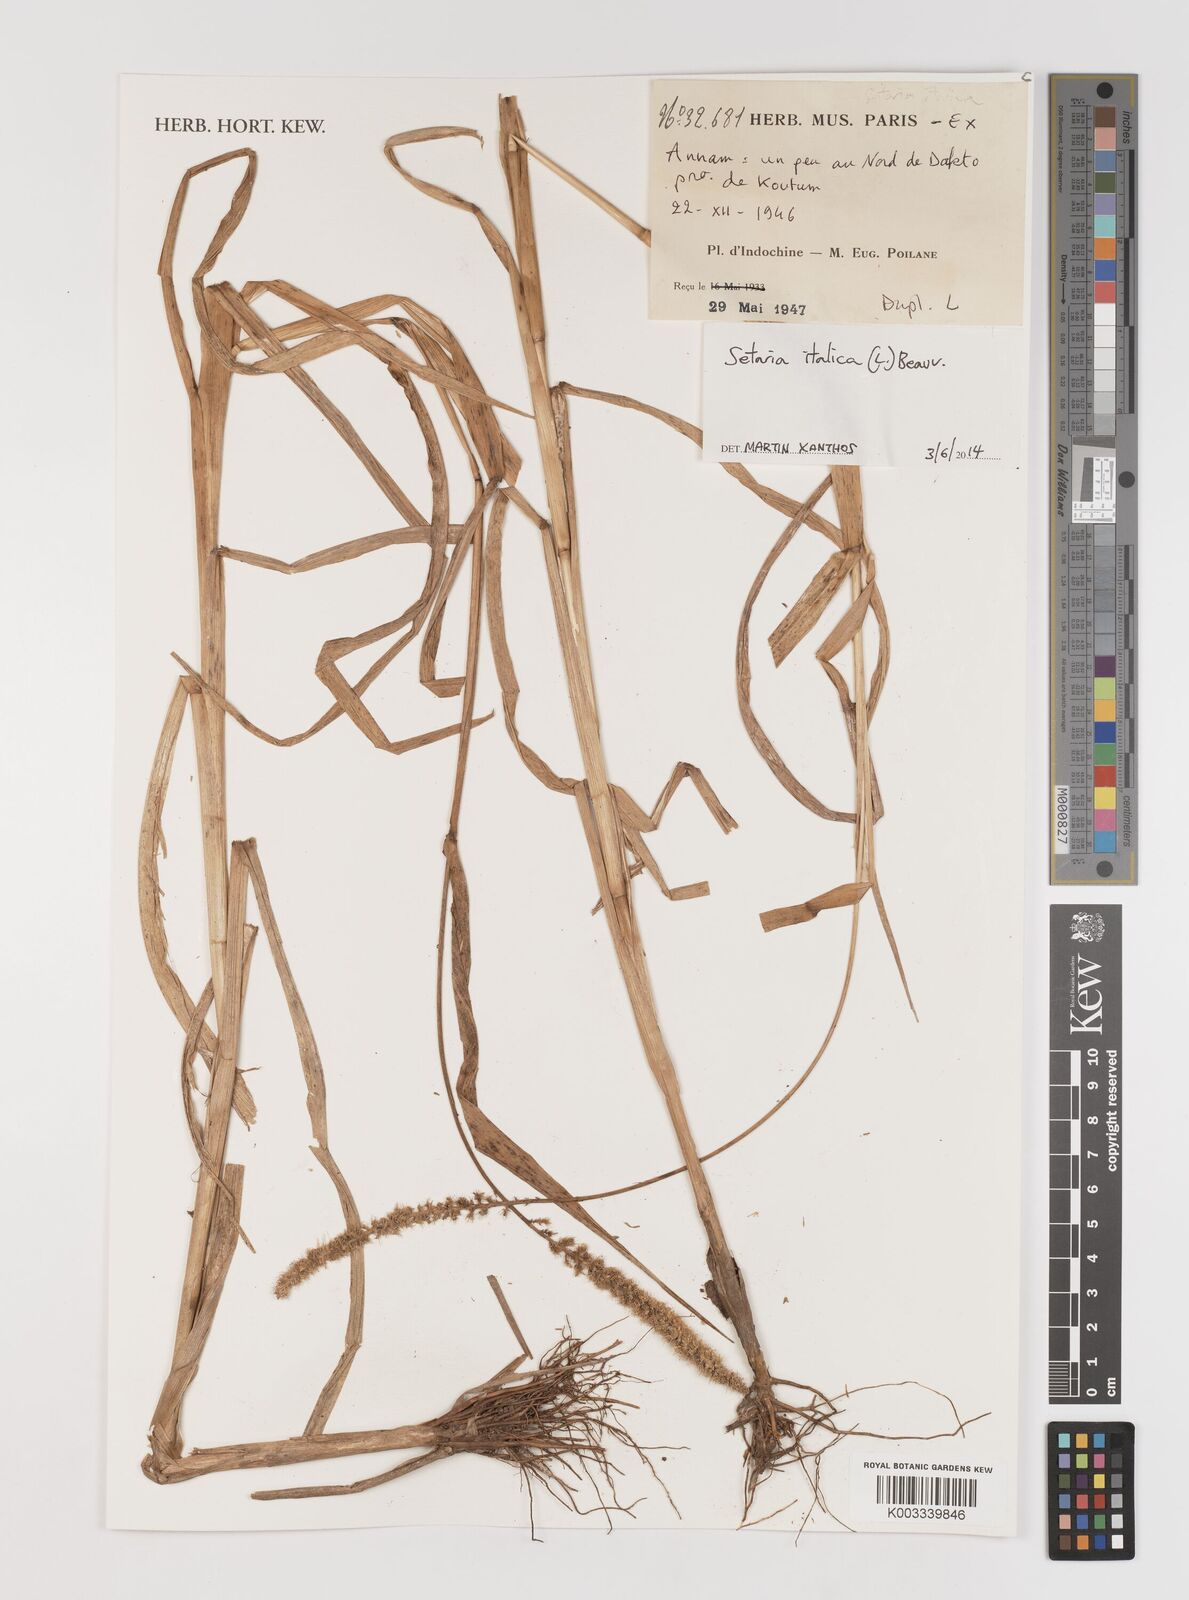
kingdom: Plantae
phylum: Tracheophyta
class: Liliopsida
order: Poales
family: Poaceae
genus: Setaria
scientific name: Setaria italica
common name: Foxtail bristle-grass
